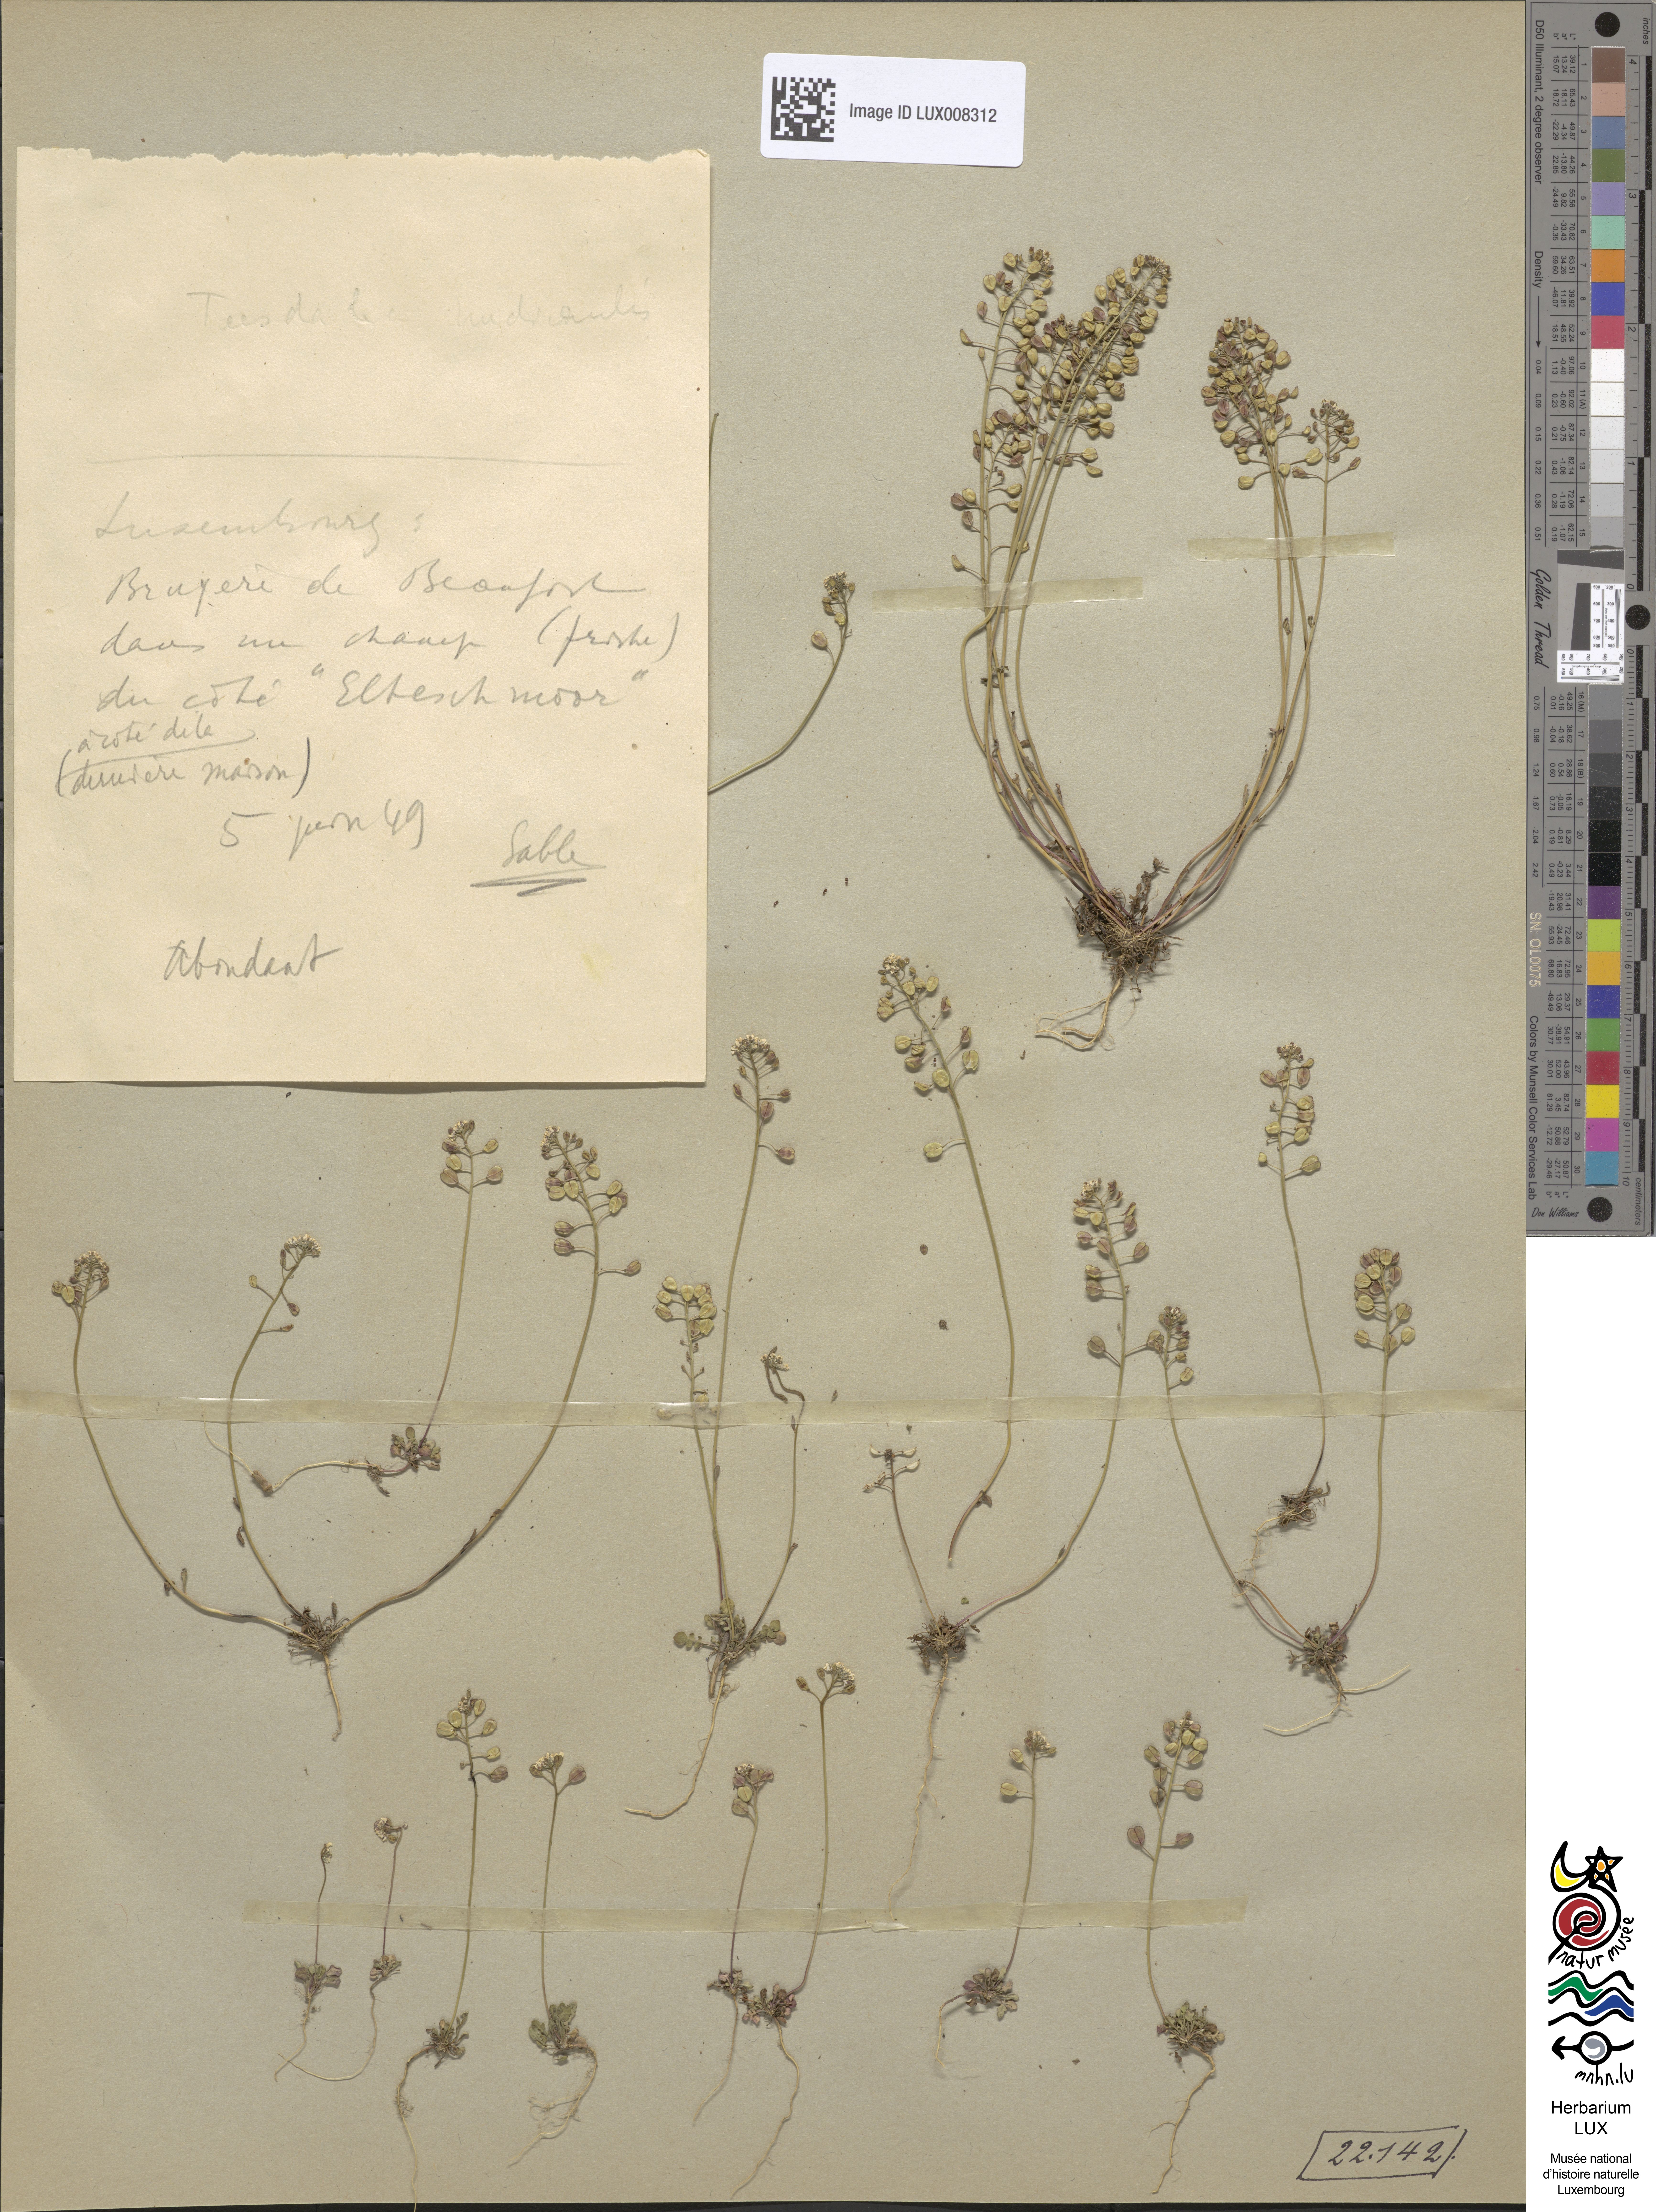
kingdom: Plantae
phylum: Tracheophyta
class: Magnoliopsida
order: Brassicales
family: Brassicaceae
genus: Teesdalia
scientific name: Teesdalia nudicaulis
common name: Shepherd's cress
